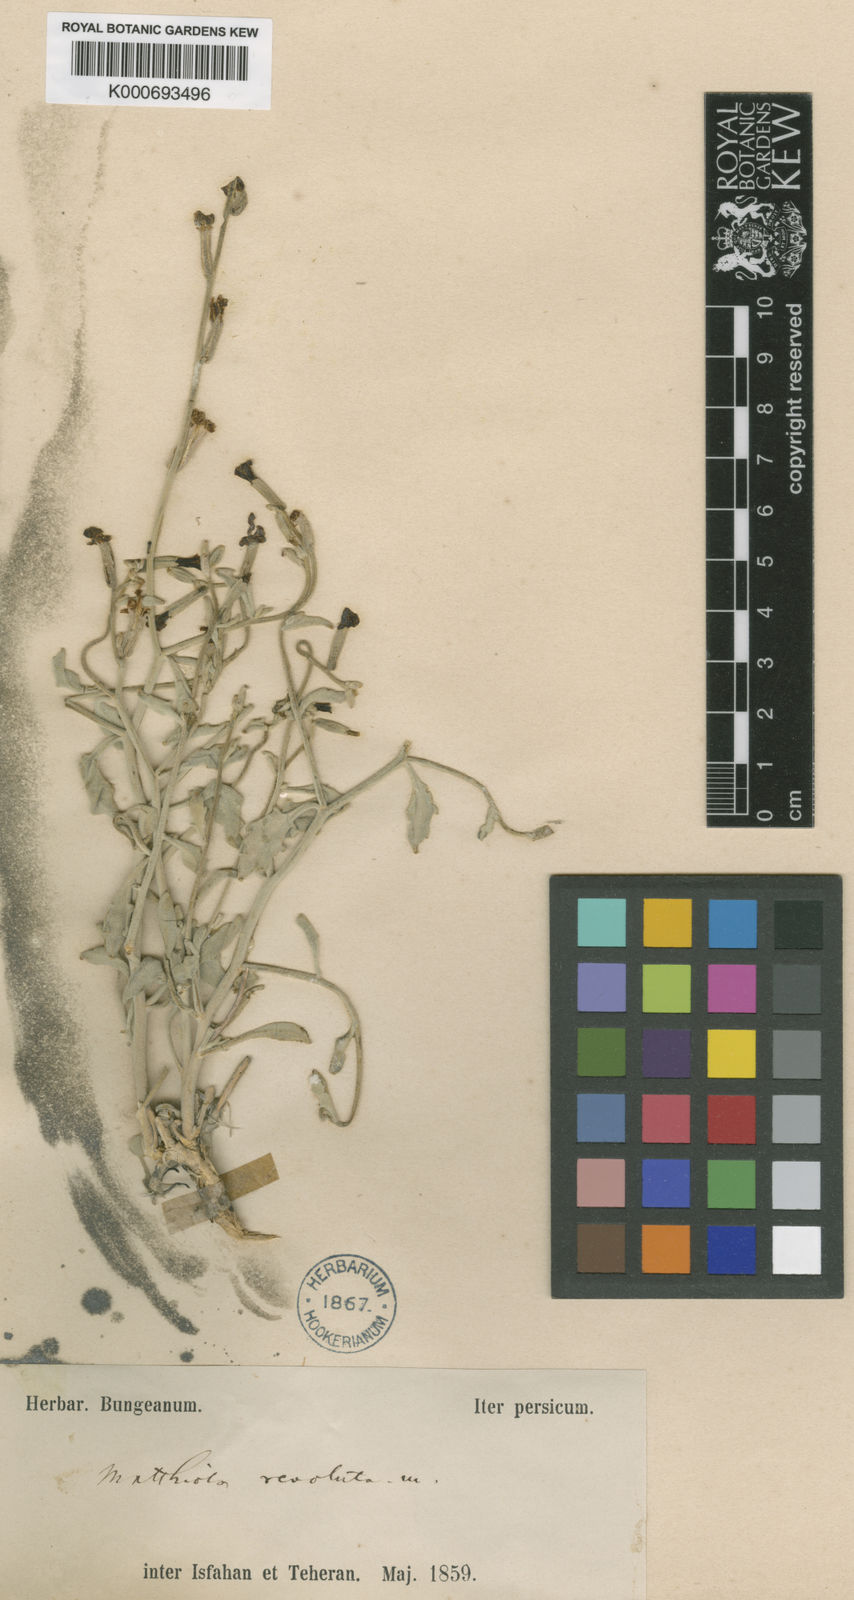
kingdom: Plantae
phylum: Tracheophyta
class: Magnoliopsida
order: Brassicales
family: Brassicaceae
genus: Matthiola
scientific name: Matthiola revoluta
